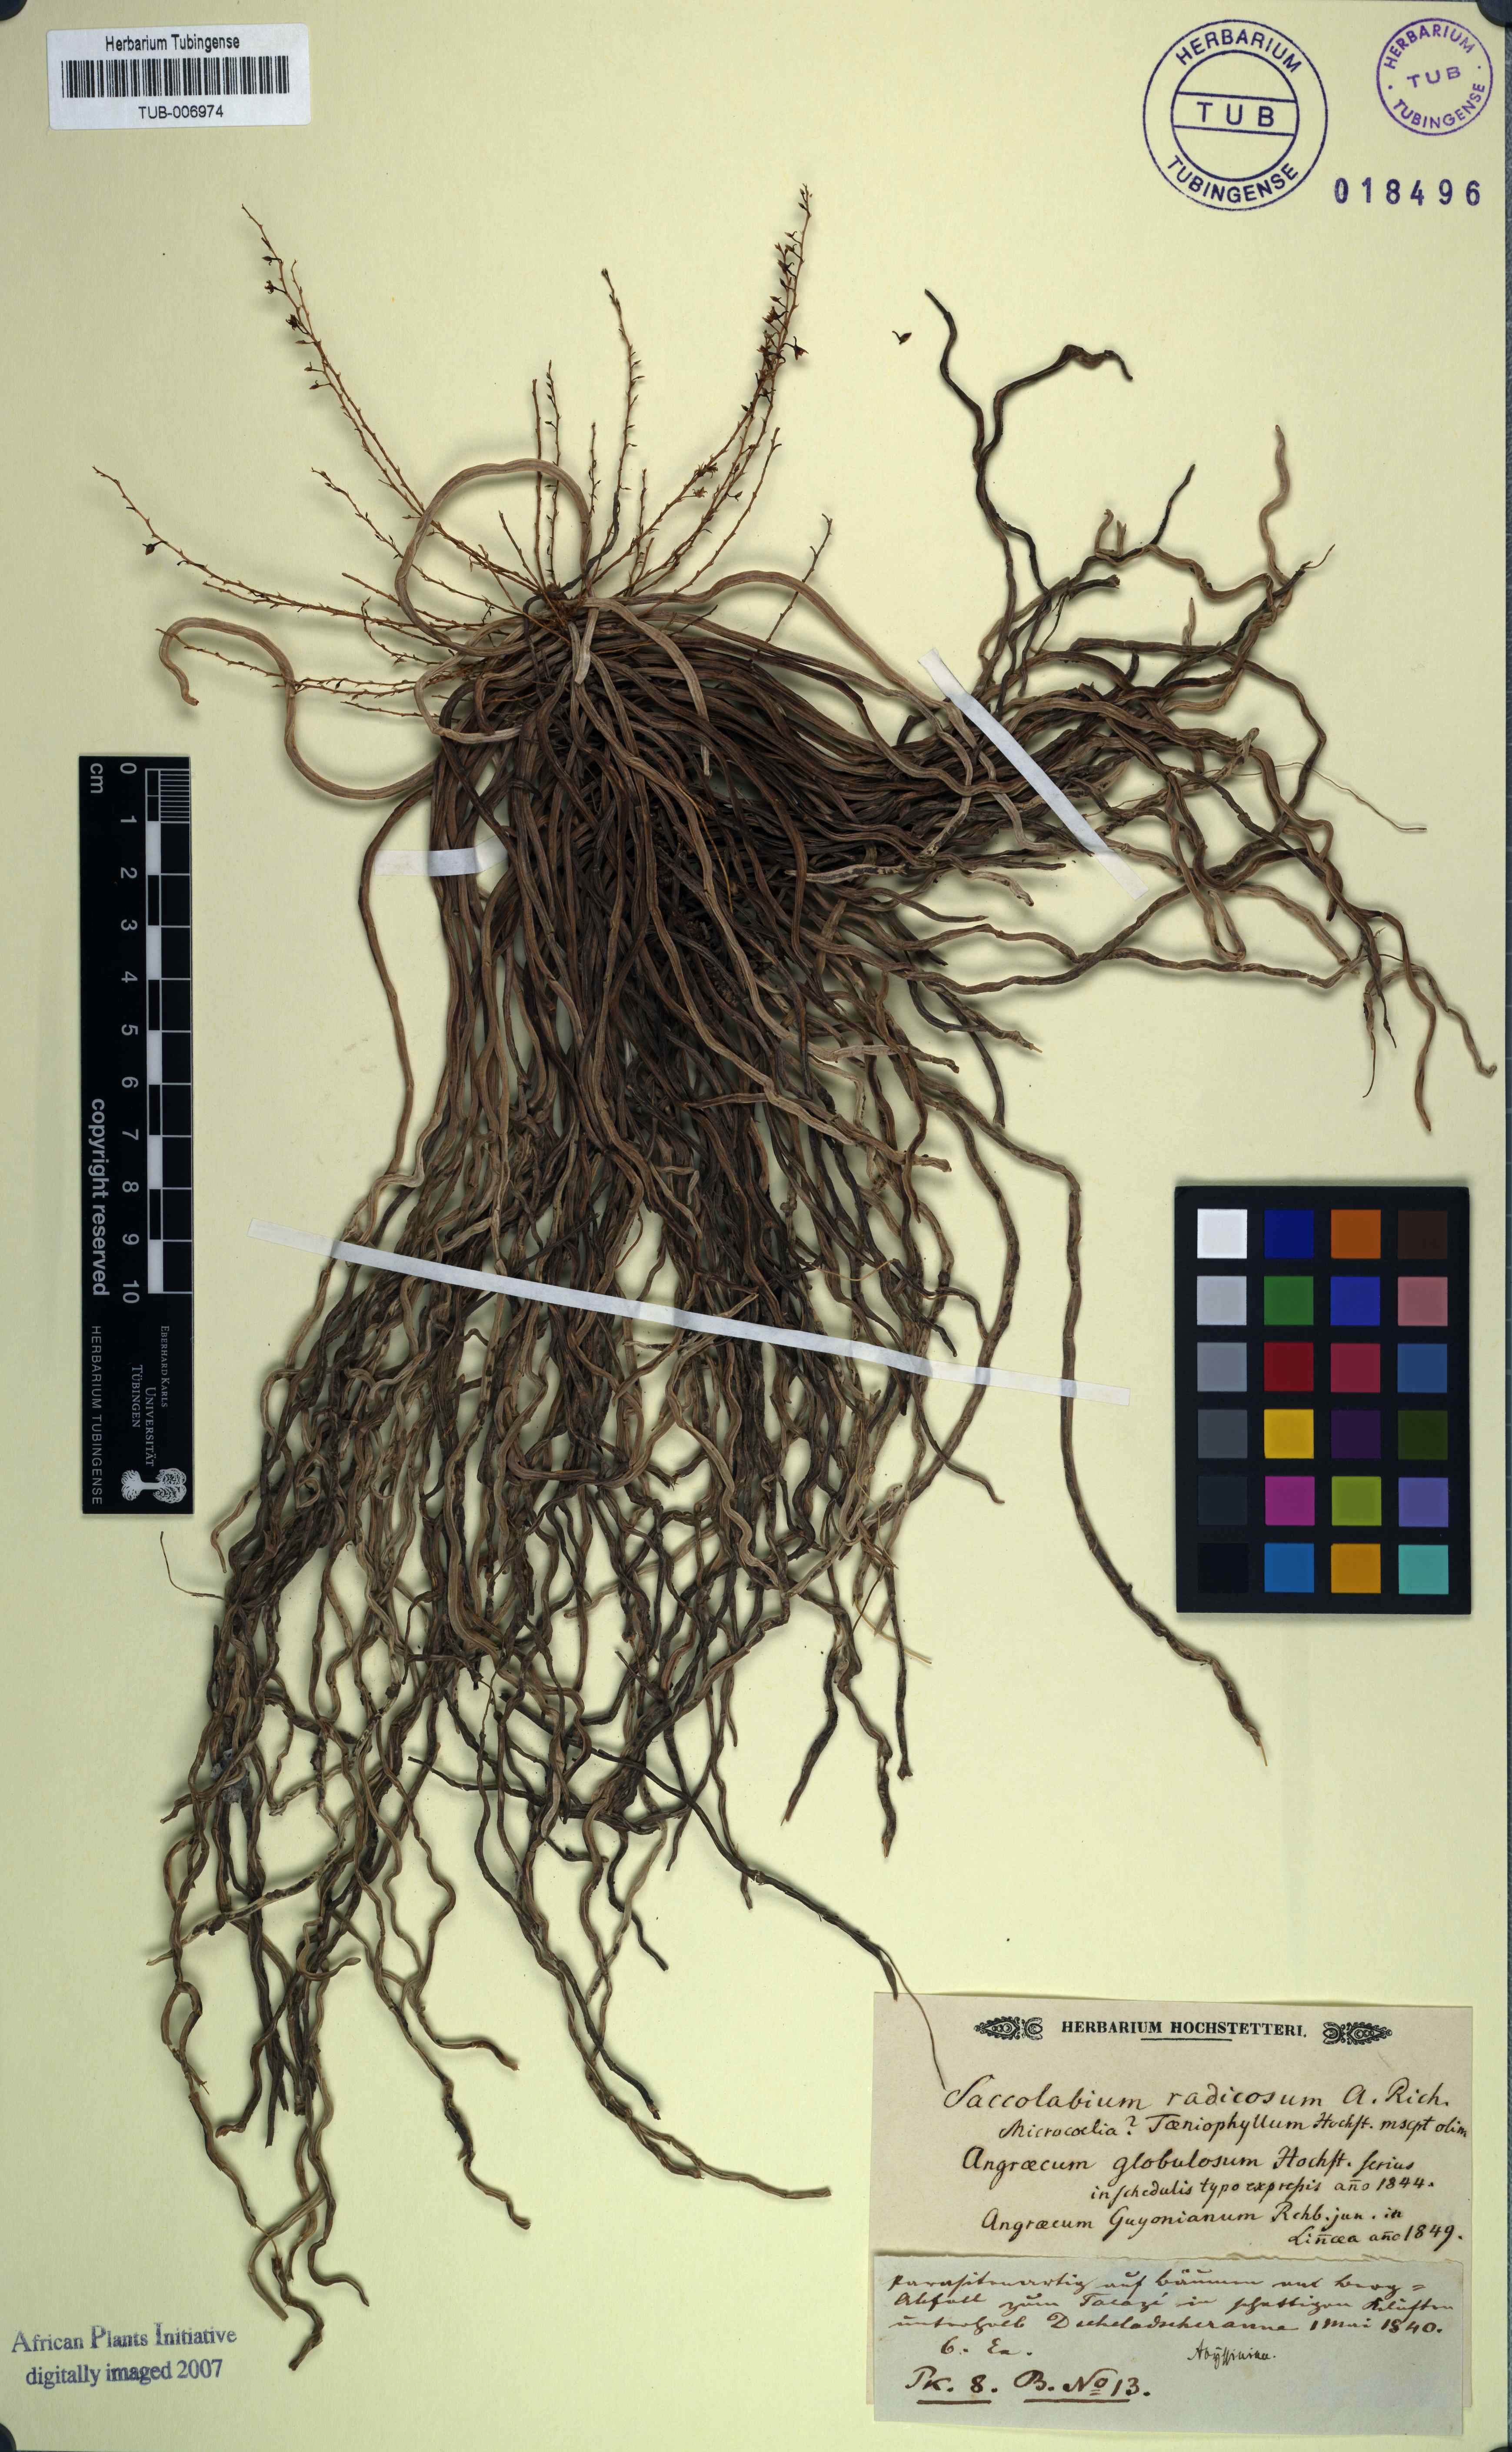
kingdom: Plantae
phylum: Tracheophyta
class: Liliopsida
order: Asparagales
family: Orchidaceae
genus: Microcoelia
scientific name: Microcoelia globulosa
